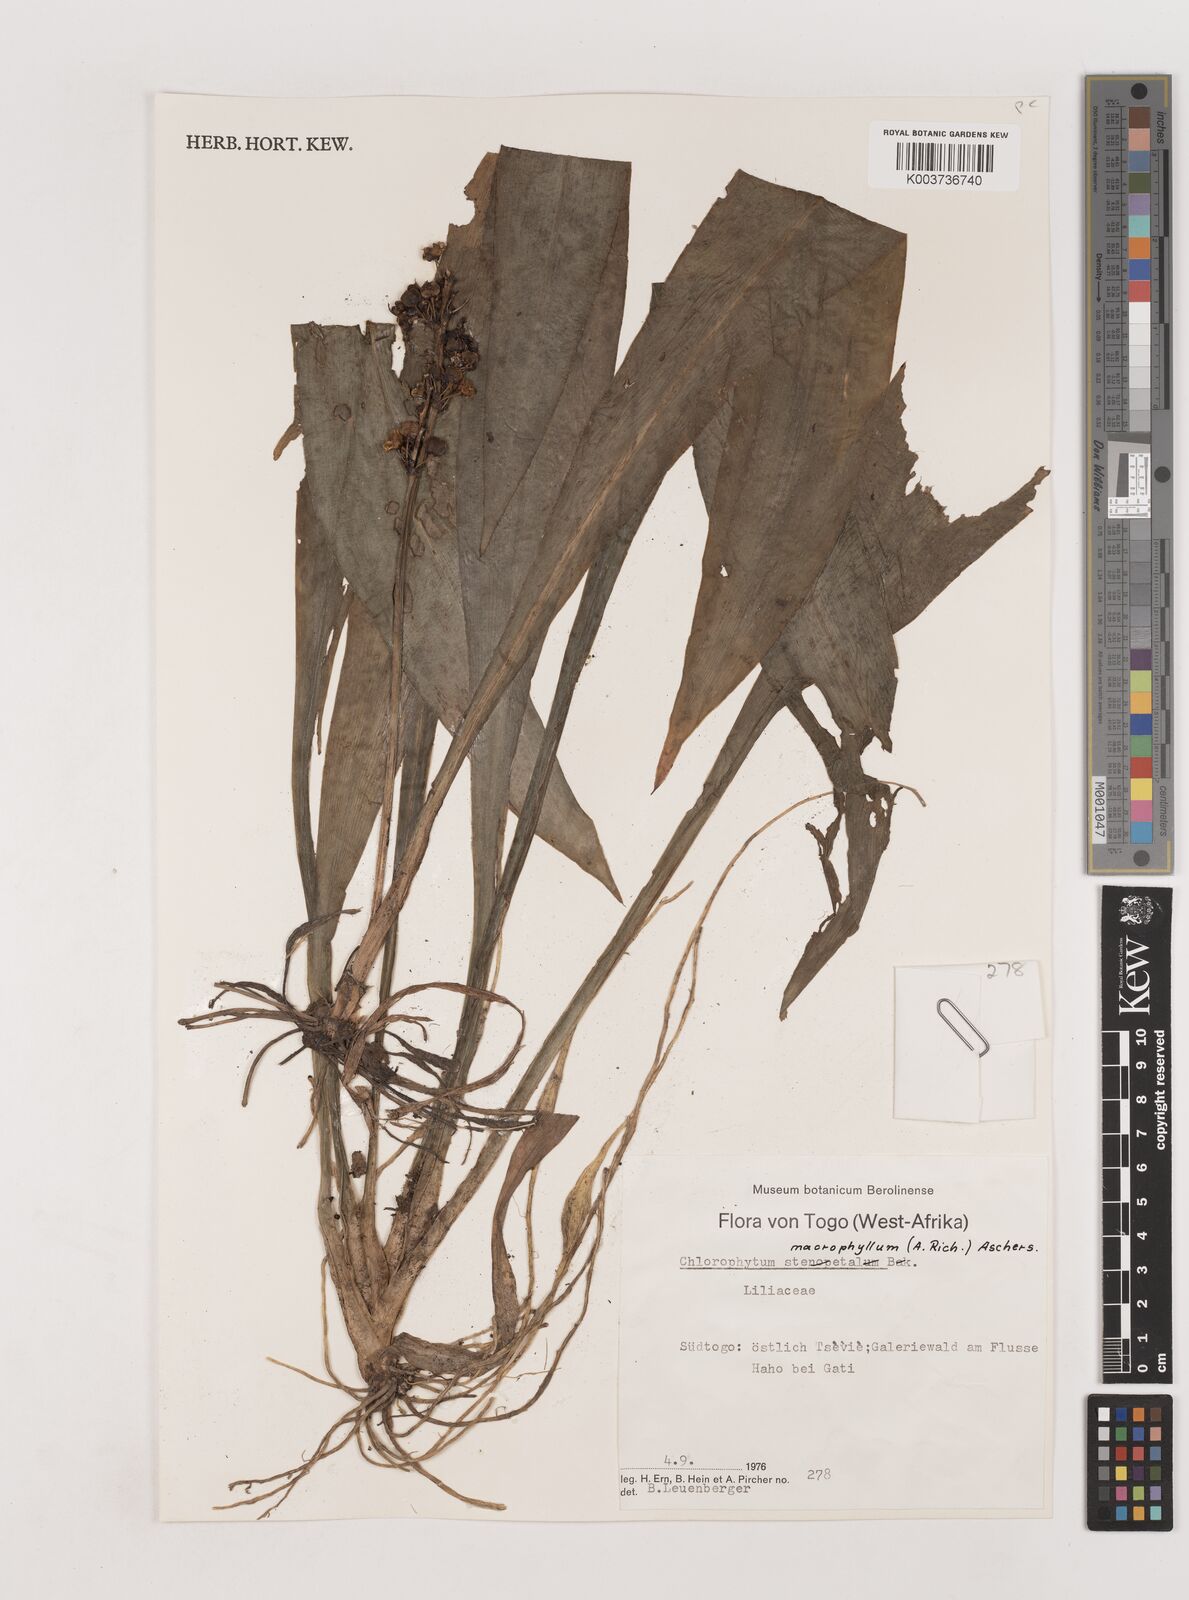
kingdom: Plantae
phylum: Tracheophyta
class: Liliopsida
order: Asparagales
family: Asparagaceae
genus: Chlorophytum
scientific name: Chlorophytum macrophyllum
